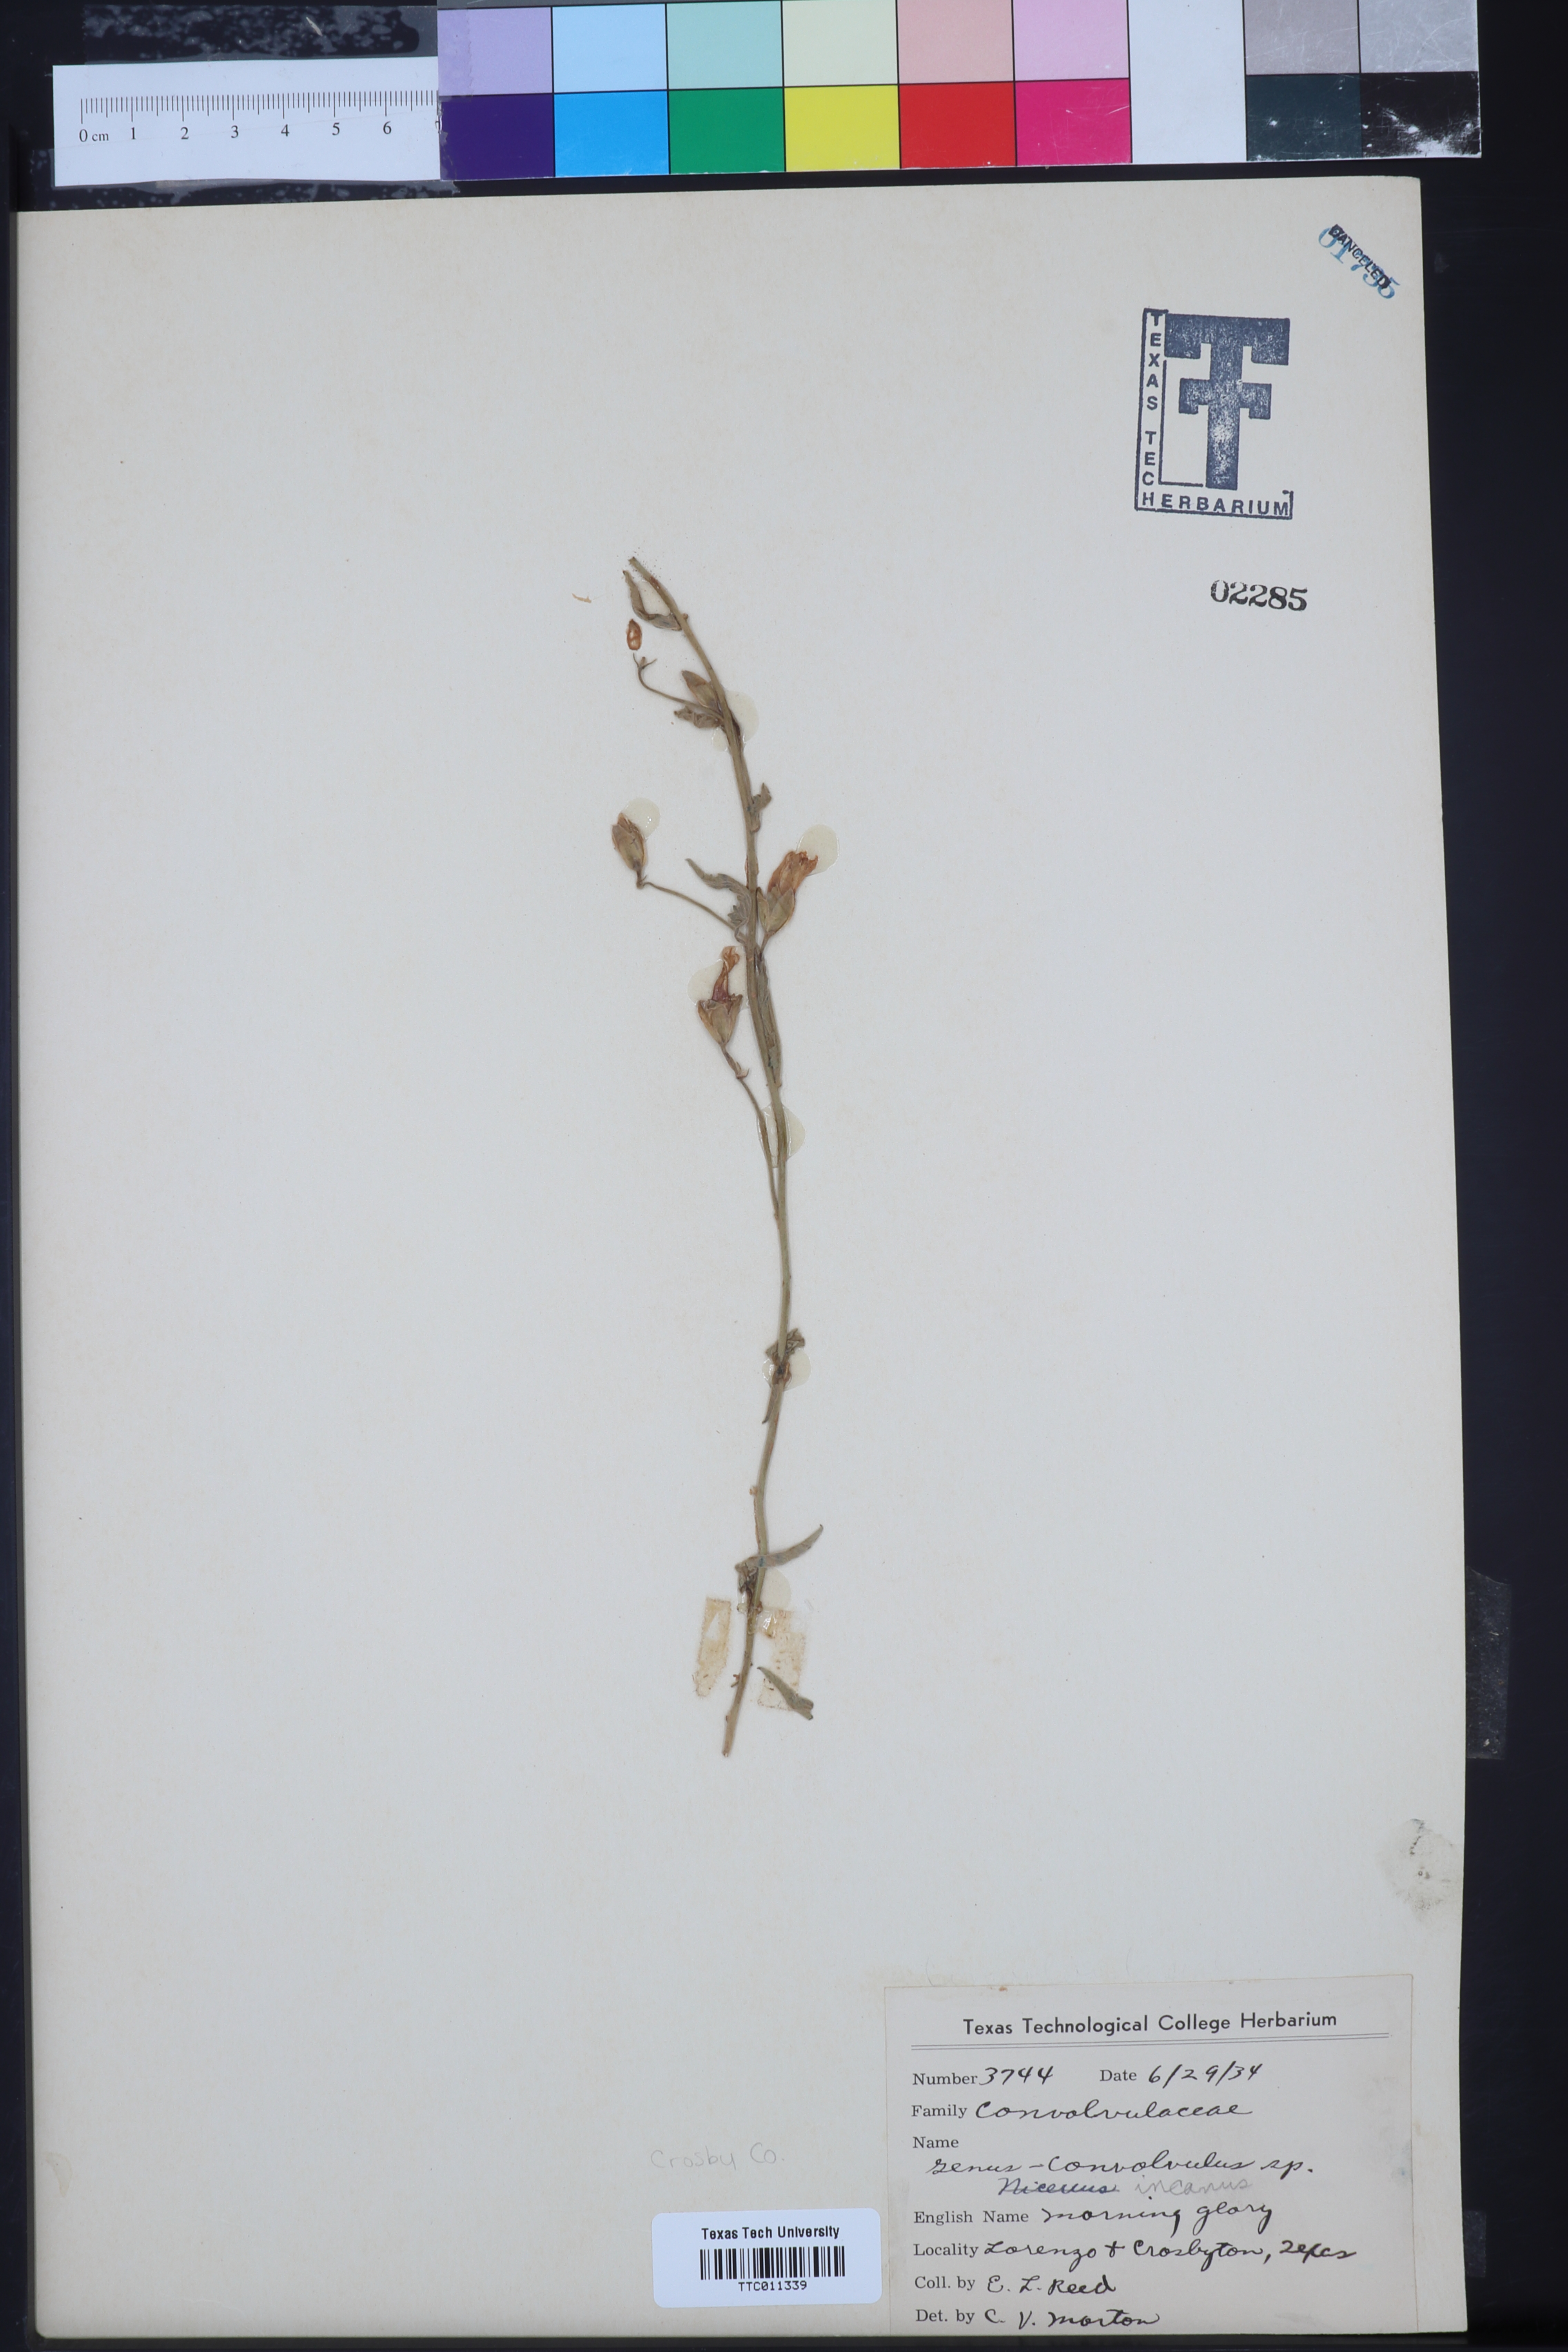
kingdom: Plantae
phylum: Tracheophyta
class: Magnoliopsida
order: Solanales
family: Convolvulaceae
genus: Convolvulus
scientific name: Convolvulus hermanniae
